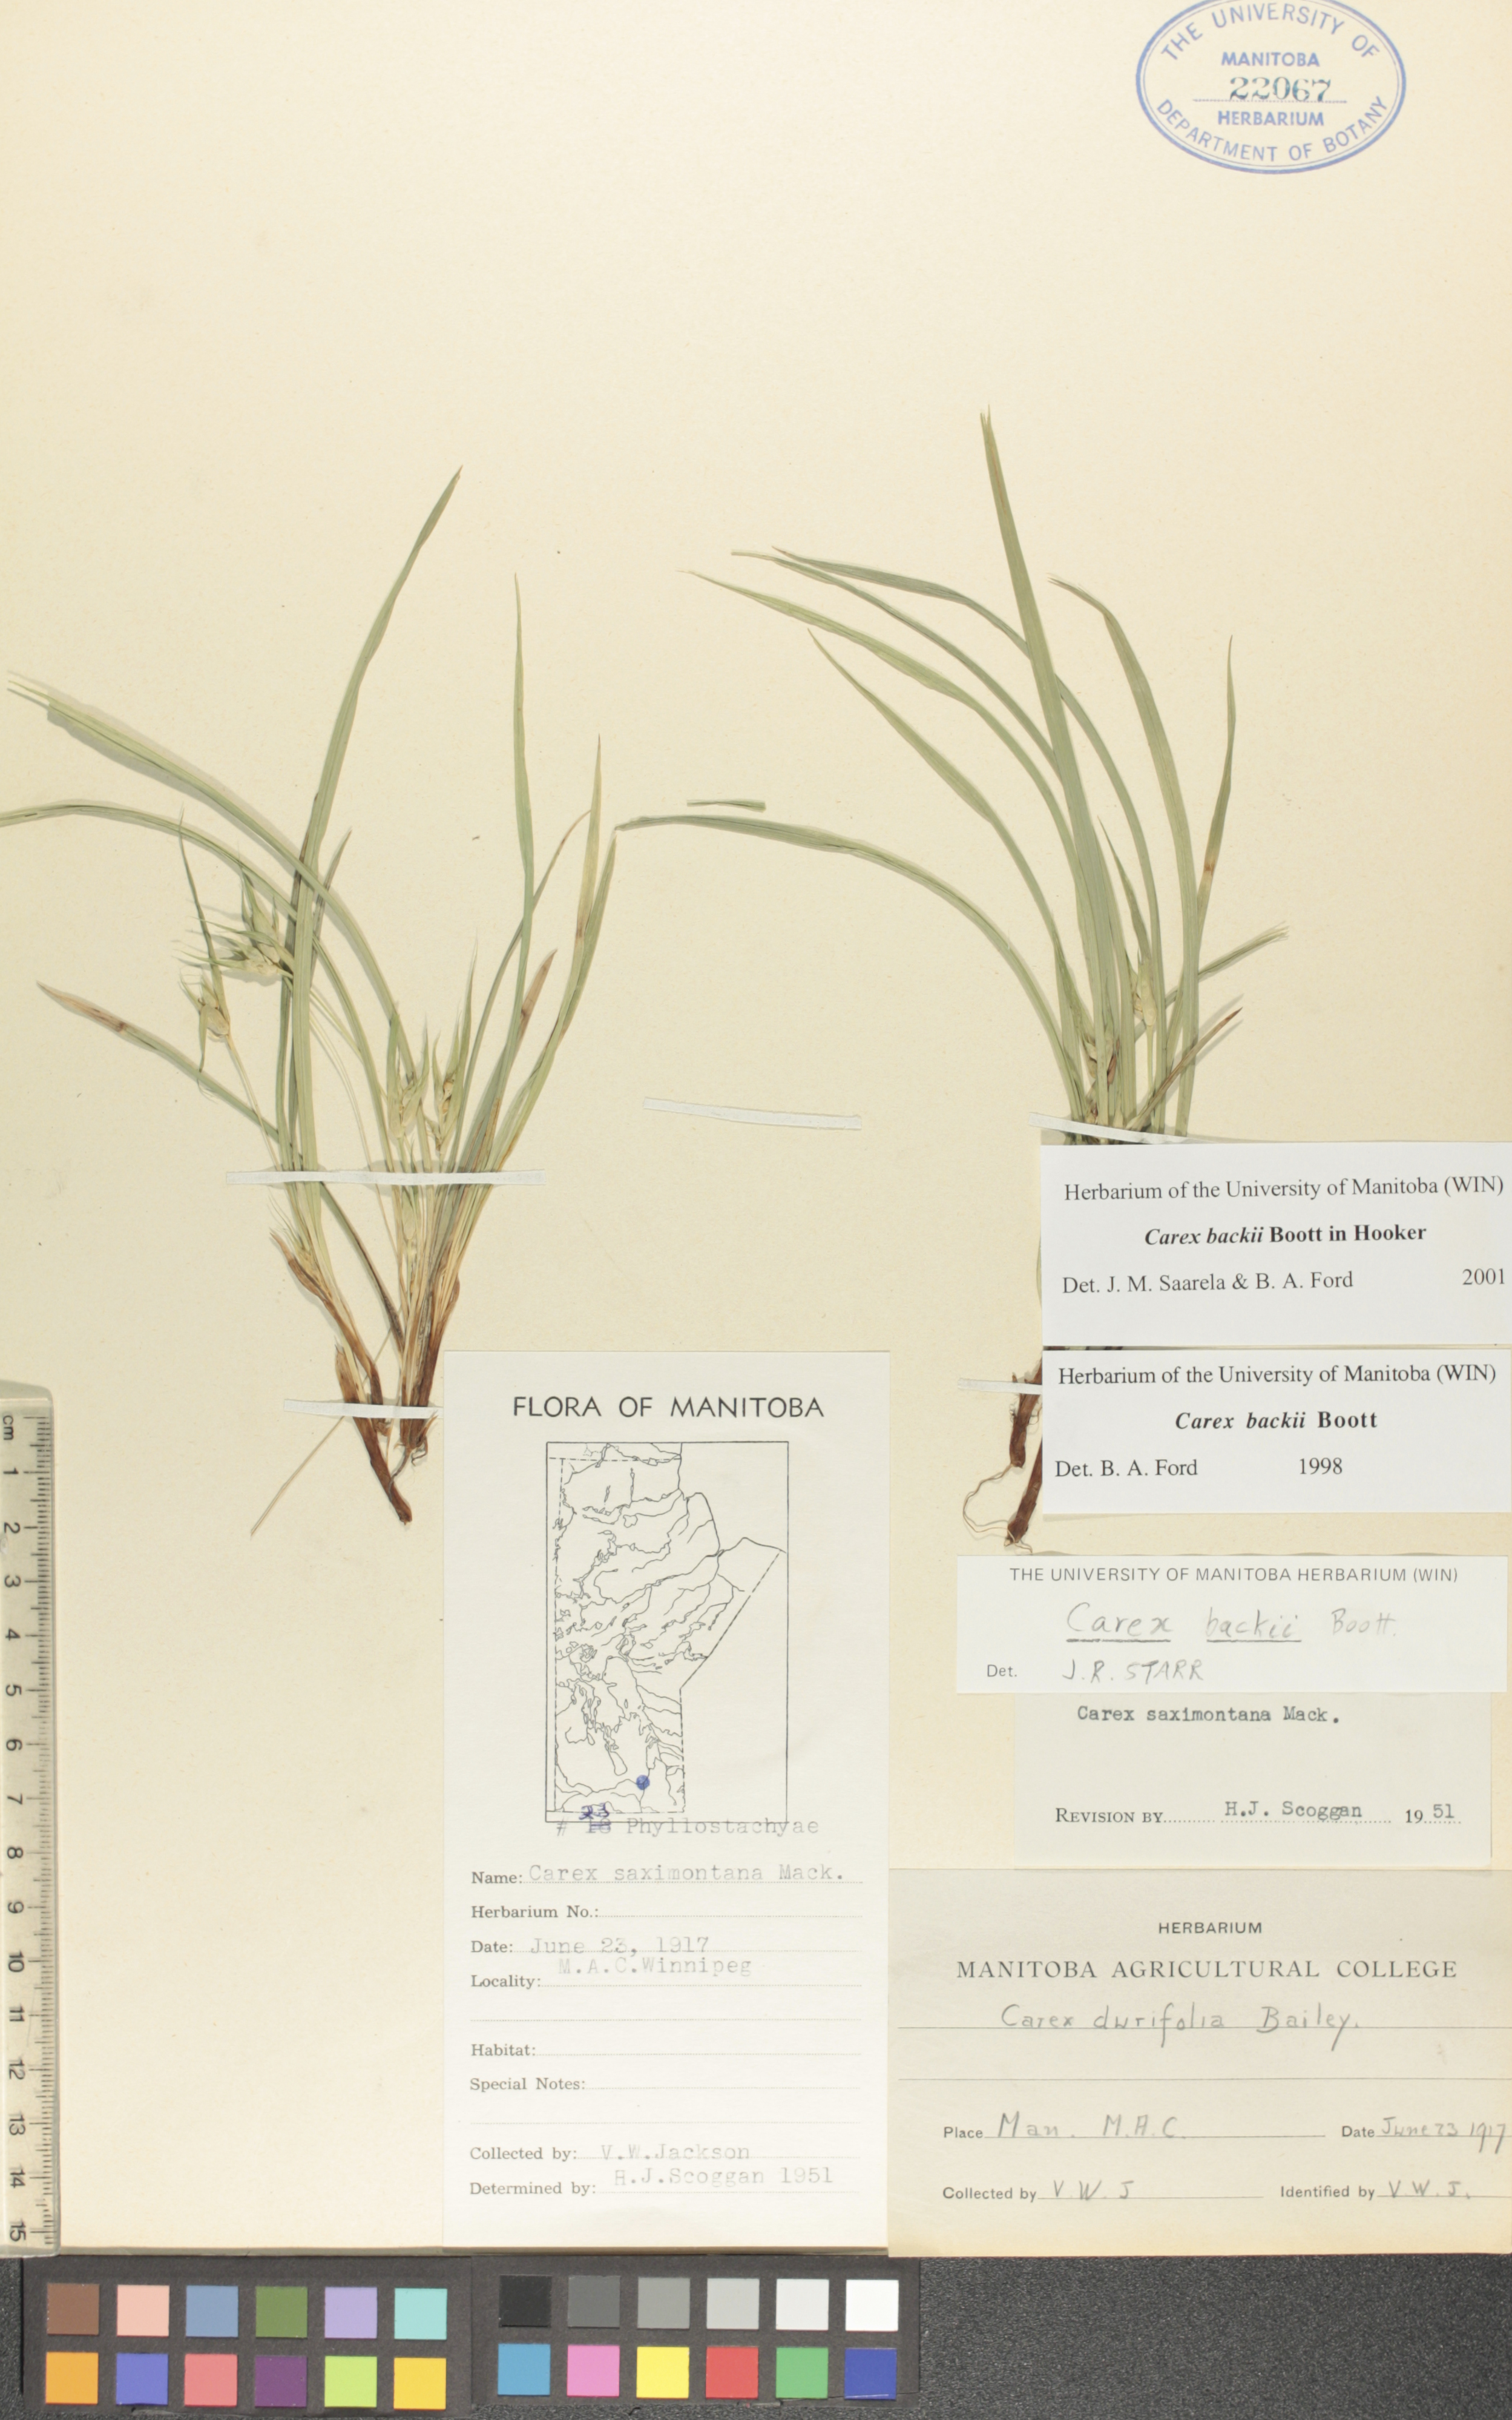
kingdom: Plantae
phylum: Tracheophyta
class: Liliopsida
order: Poales
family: Cyperaceae
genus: Carex
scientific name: Carex backii
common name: Back's sedge
